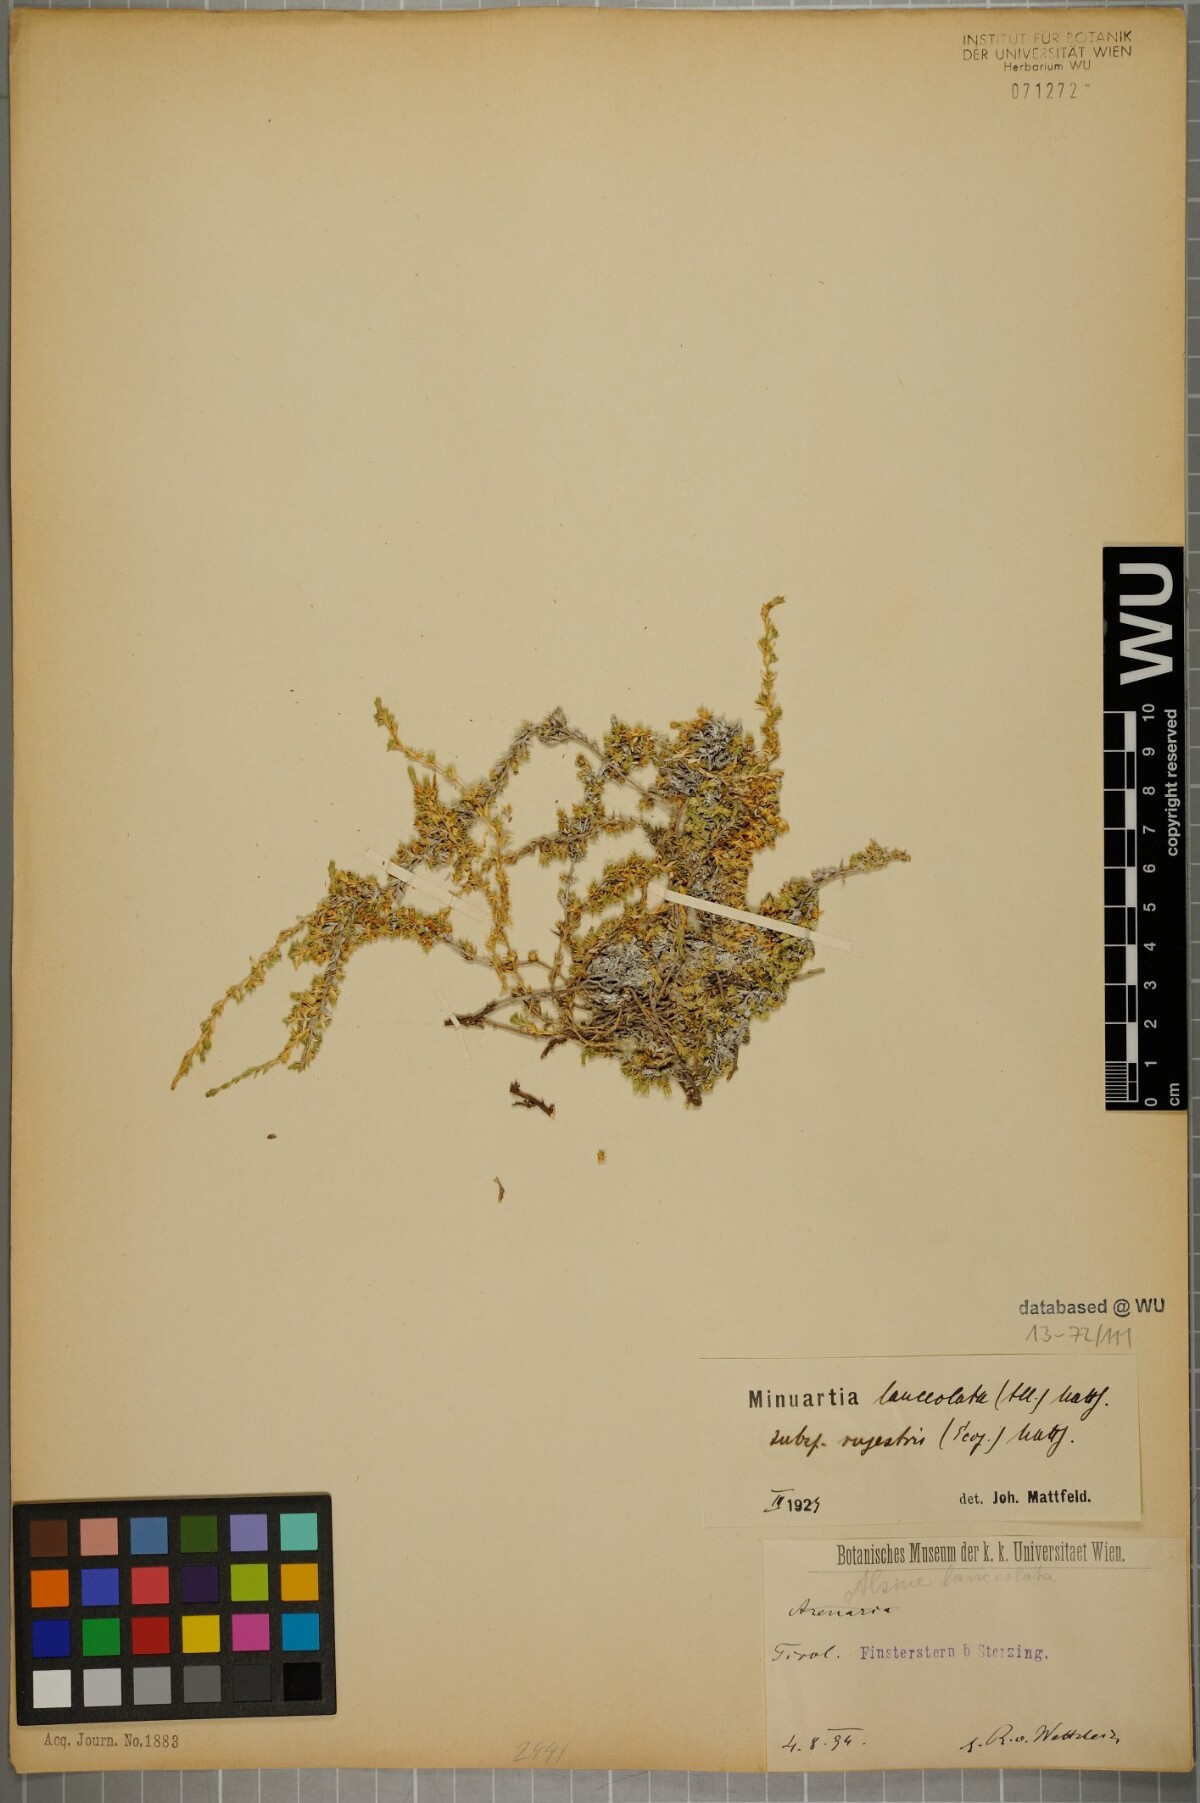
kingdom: Plantae
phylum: Tracheophyta
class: Magnoliopsida
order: Caryophyllales
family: Caryophyllaceae
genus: Facchinia
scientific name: Facchinia rupestris
